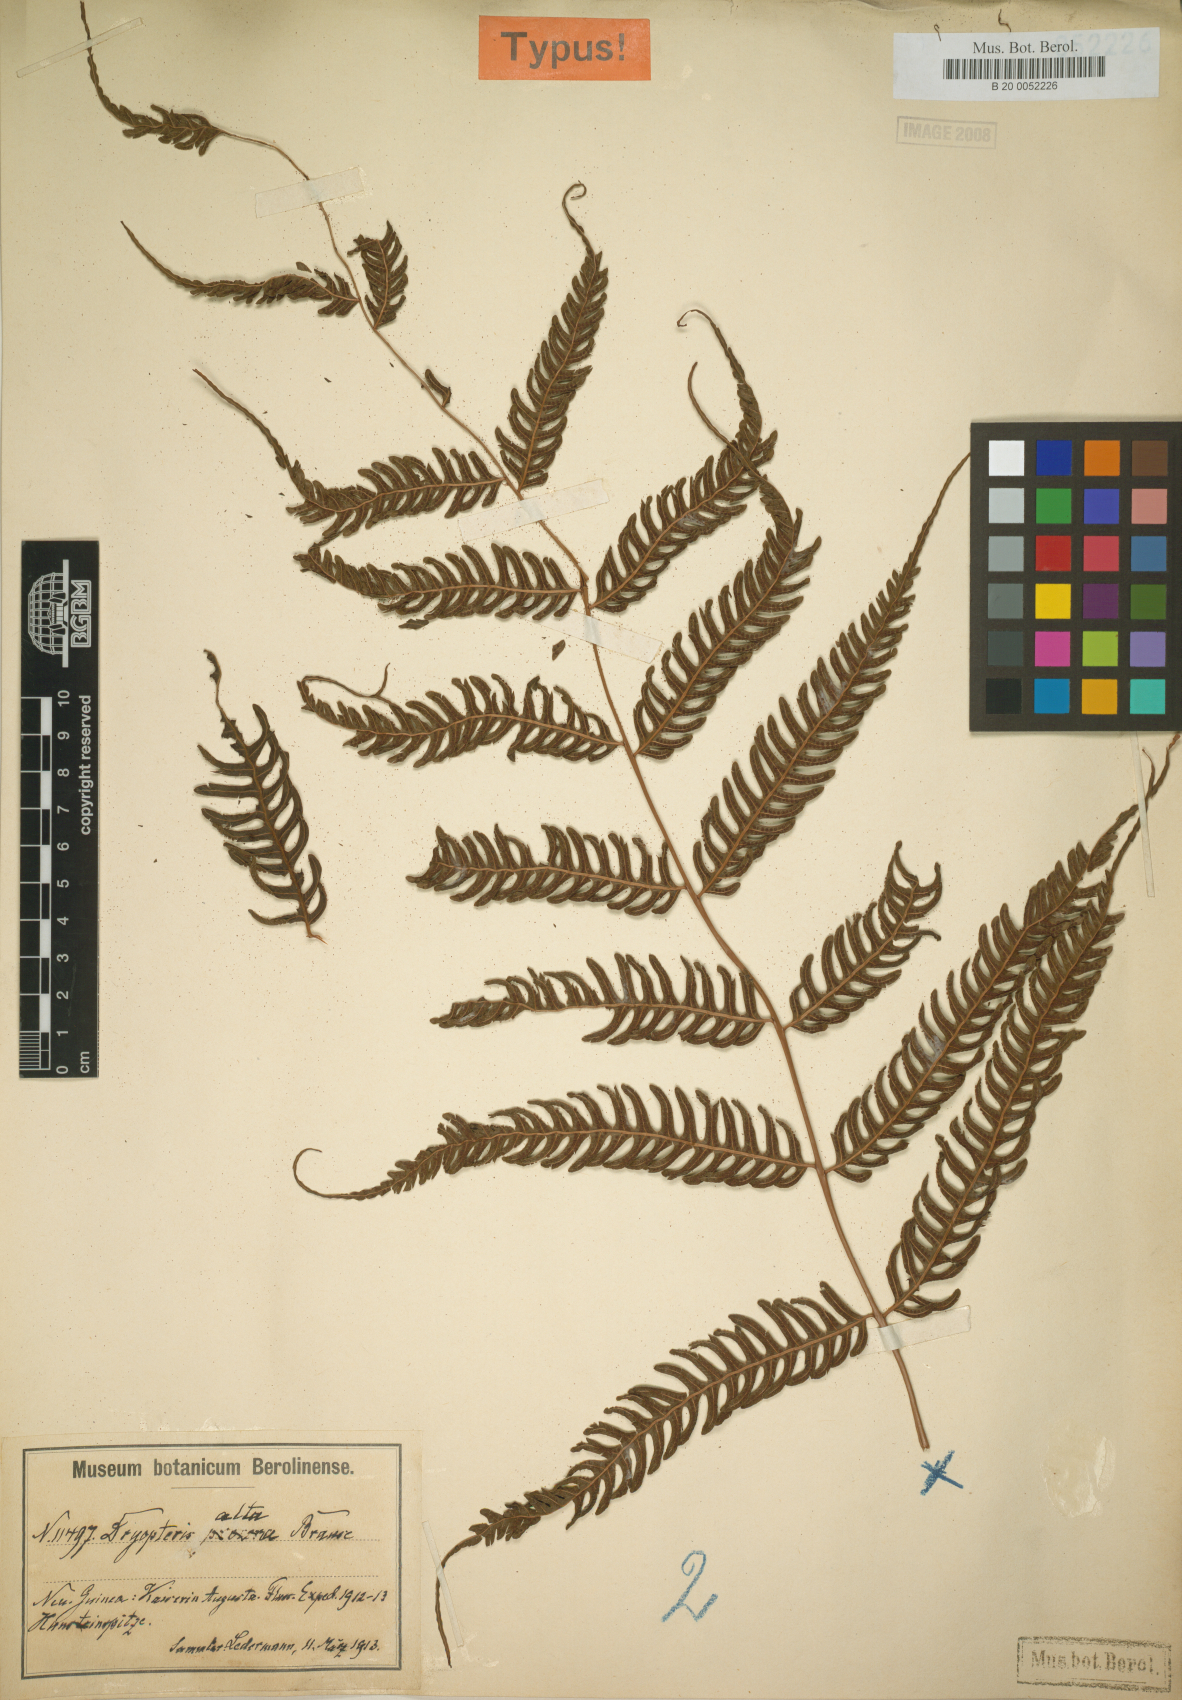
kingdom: Plantae
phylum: Tracheophyta
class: Polypodiopsida
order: Polypodiales
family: Thelypteridaceae
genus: Plesioneuron
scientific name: Plesioneuron altum
